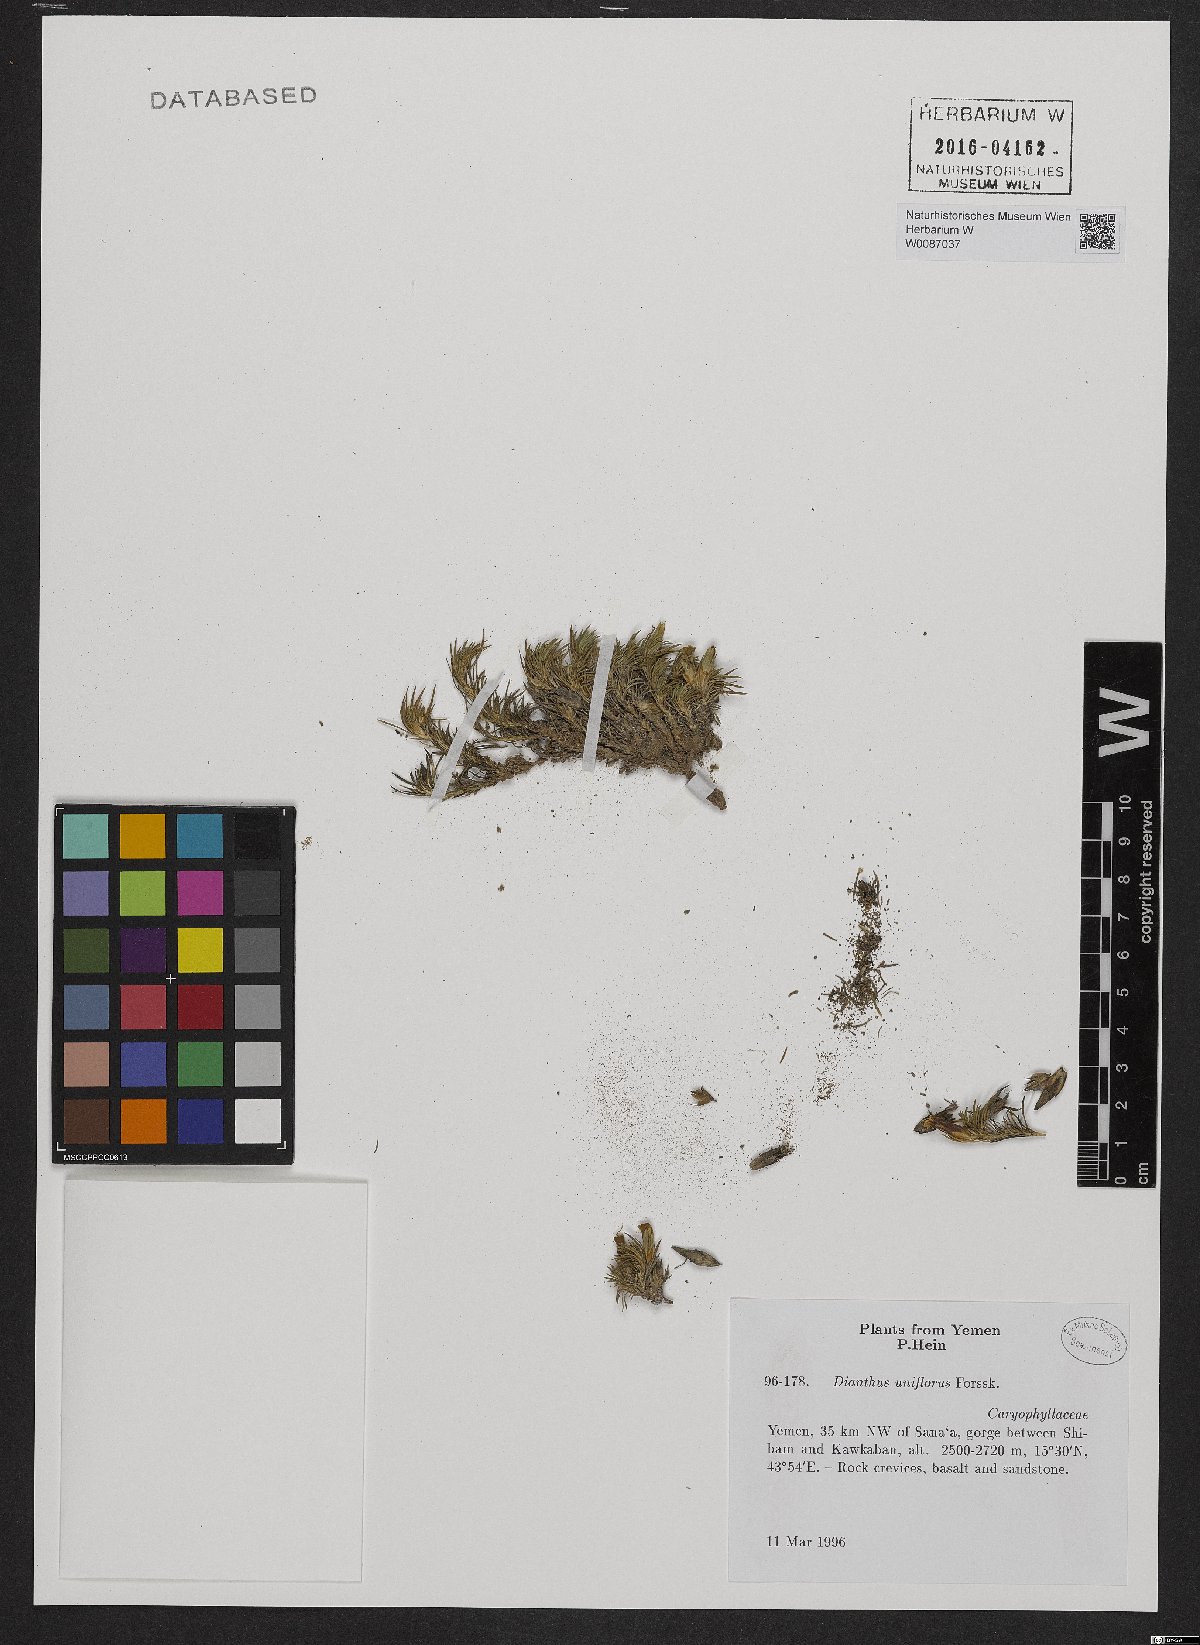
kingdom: Plantae
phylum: Tracheophyta
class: Magnoliopsida
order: Caryophyllales
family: Caryophyllaceae
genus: Dianthus
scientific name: Dianthus uniflorus
